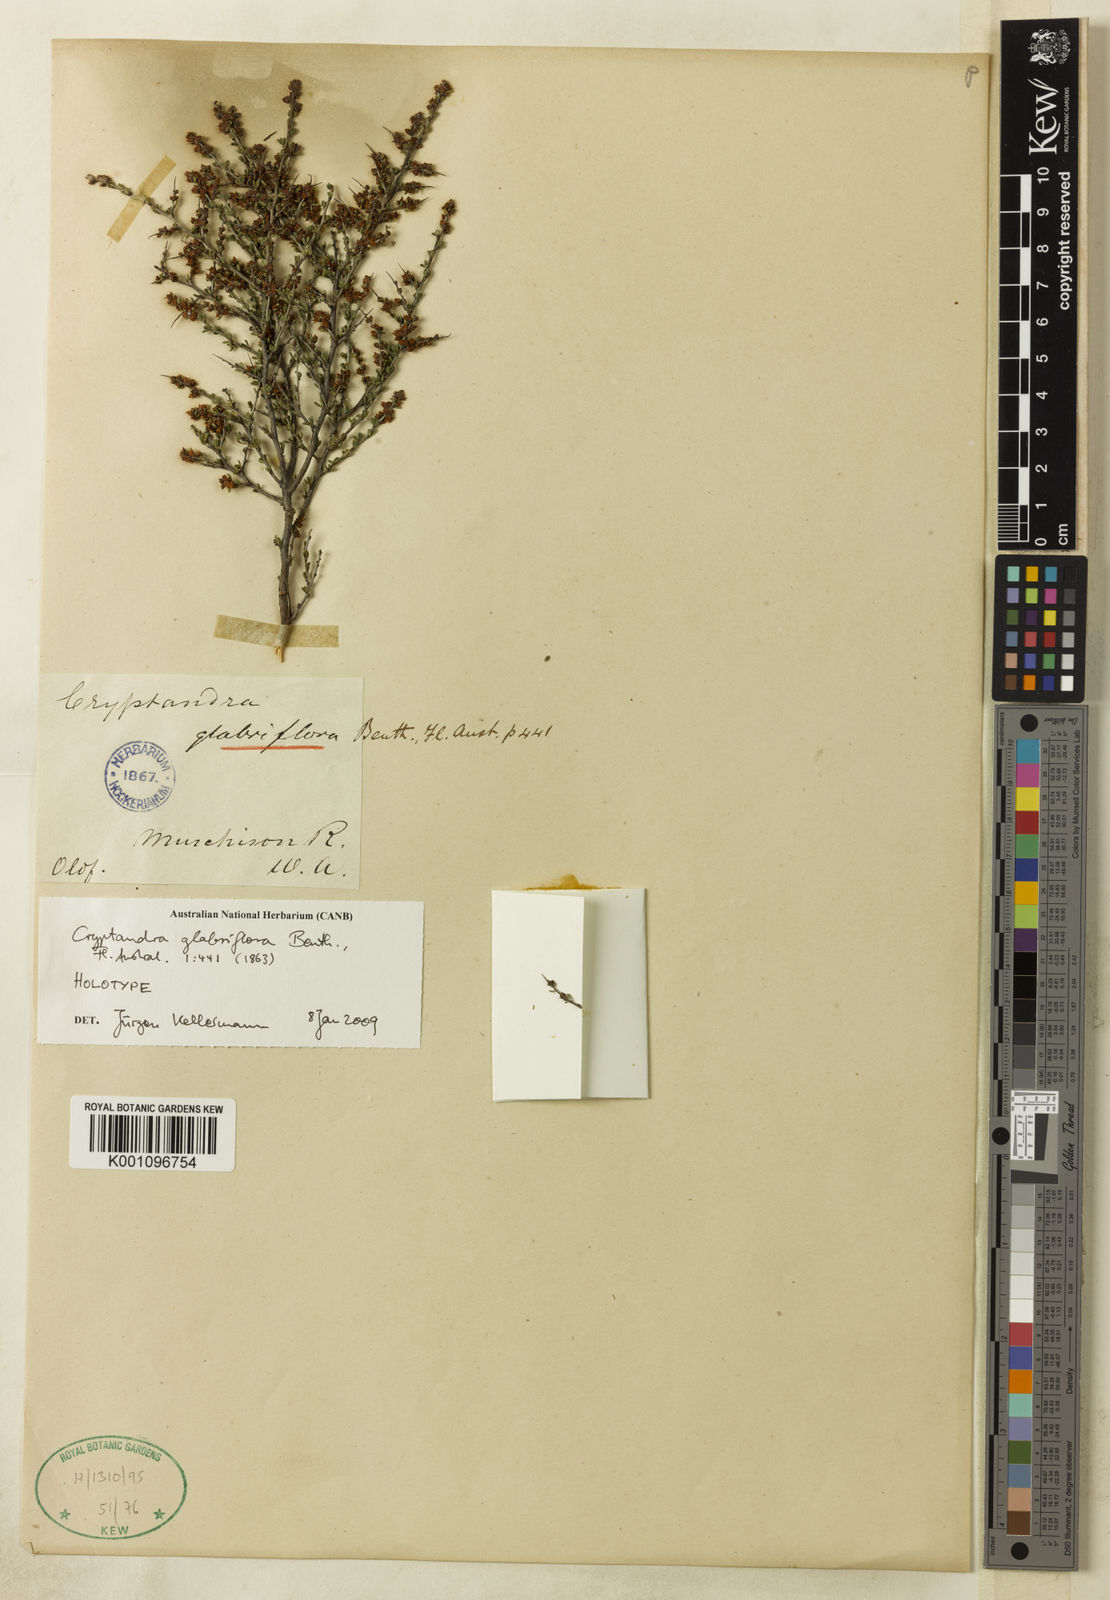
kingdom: Plantae
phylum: Tracheophyta
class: Magnoliopsida
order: Rosales
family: Rhamnaceae
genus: Cryptandra
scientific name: Cryptandra glabriflora
